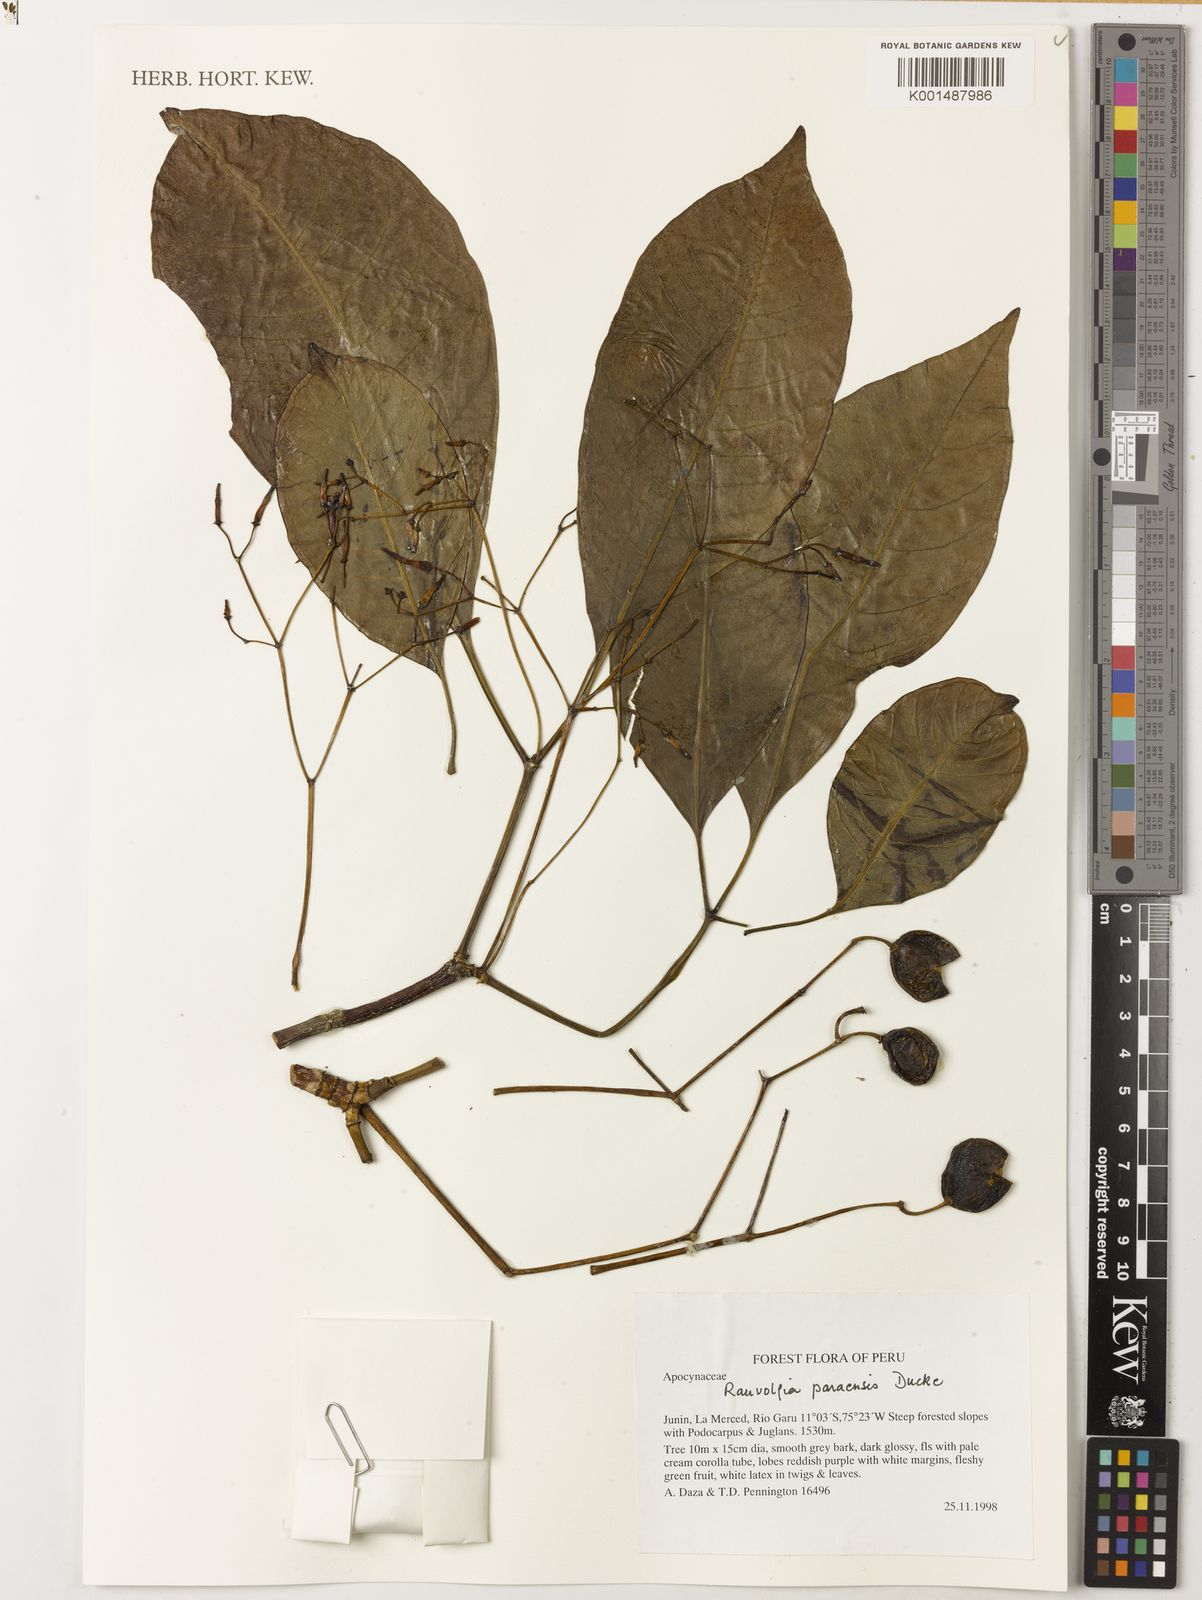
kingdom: Plantae
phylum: Tracheophyta
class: Magnoliopsida
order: Gentianales
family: Apocynaceae
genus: Rauvolfia
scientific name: Rauvolfia paraensis
